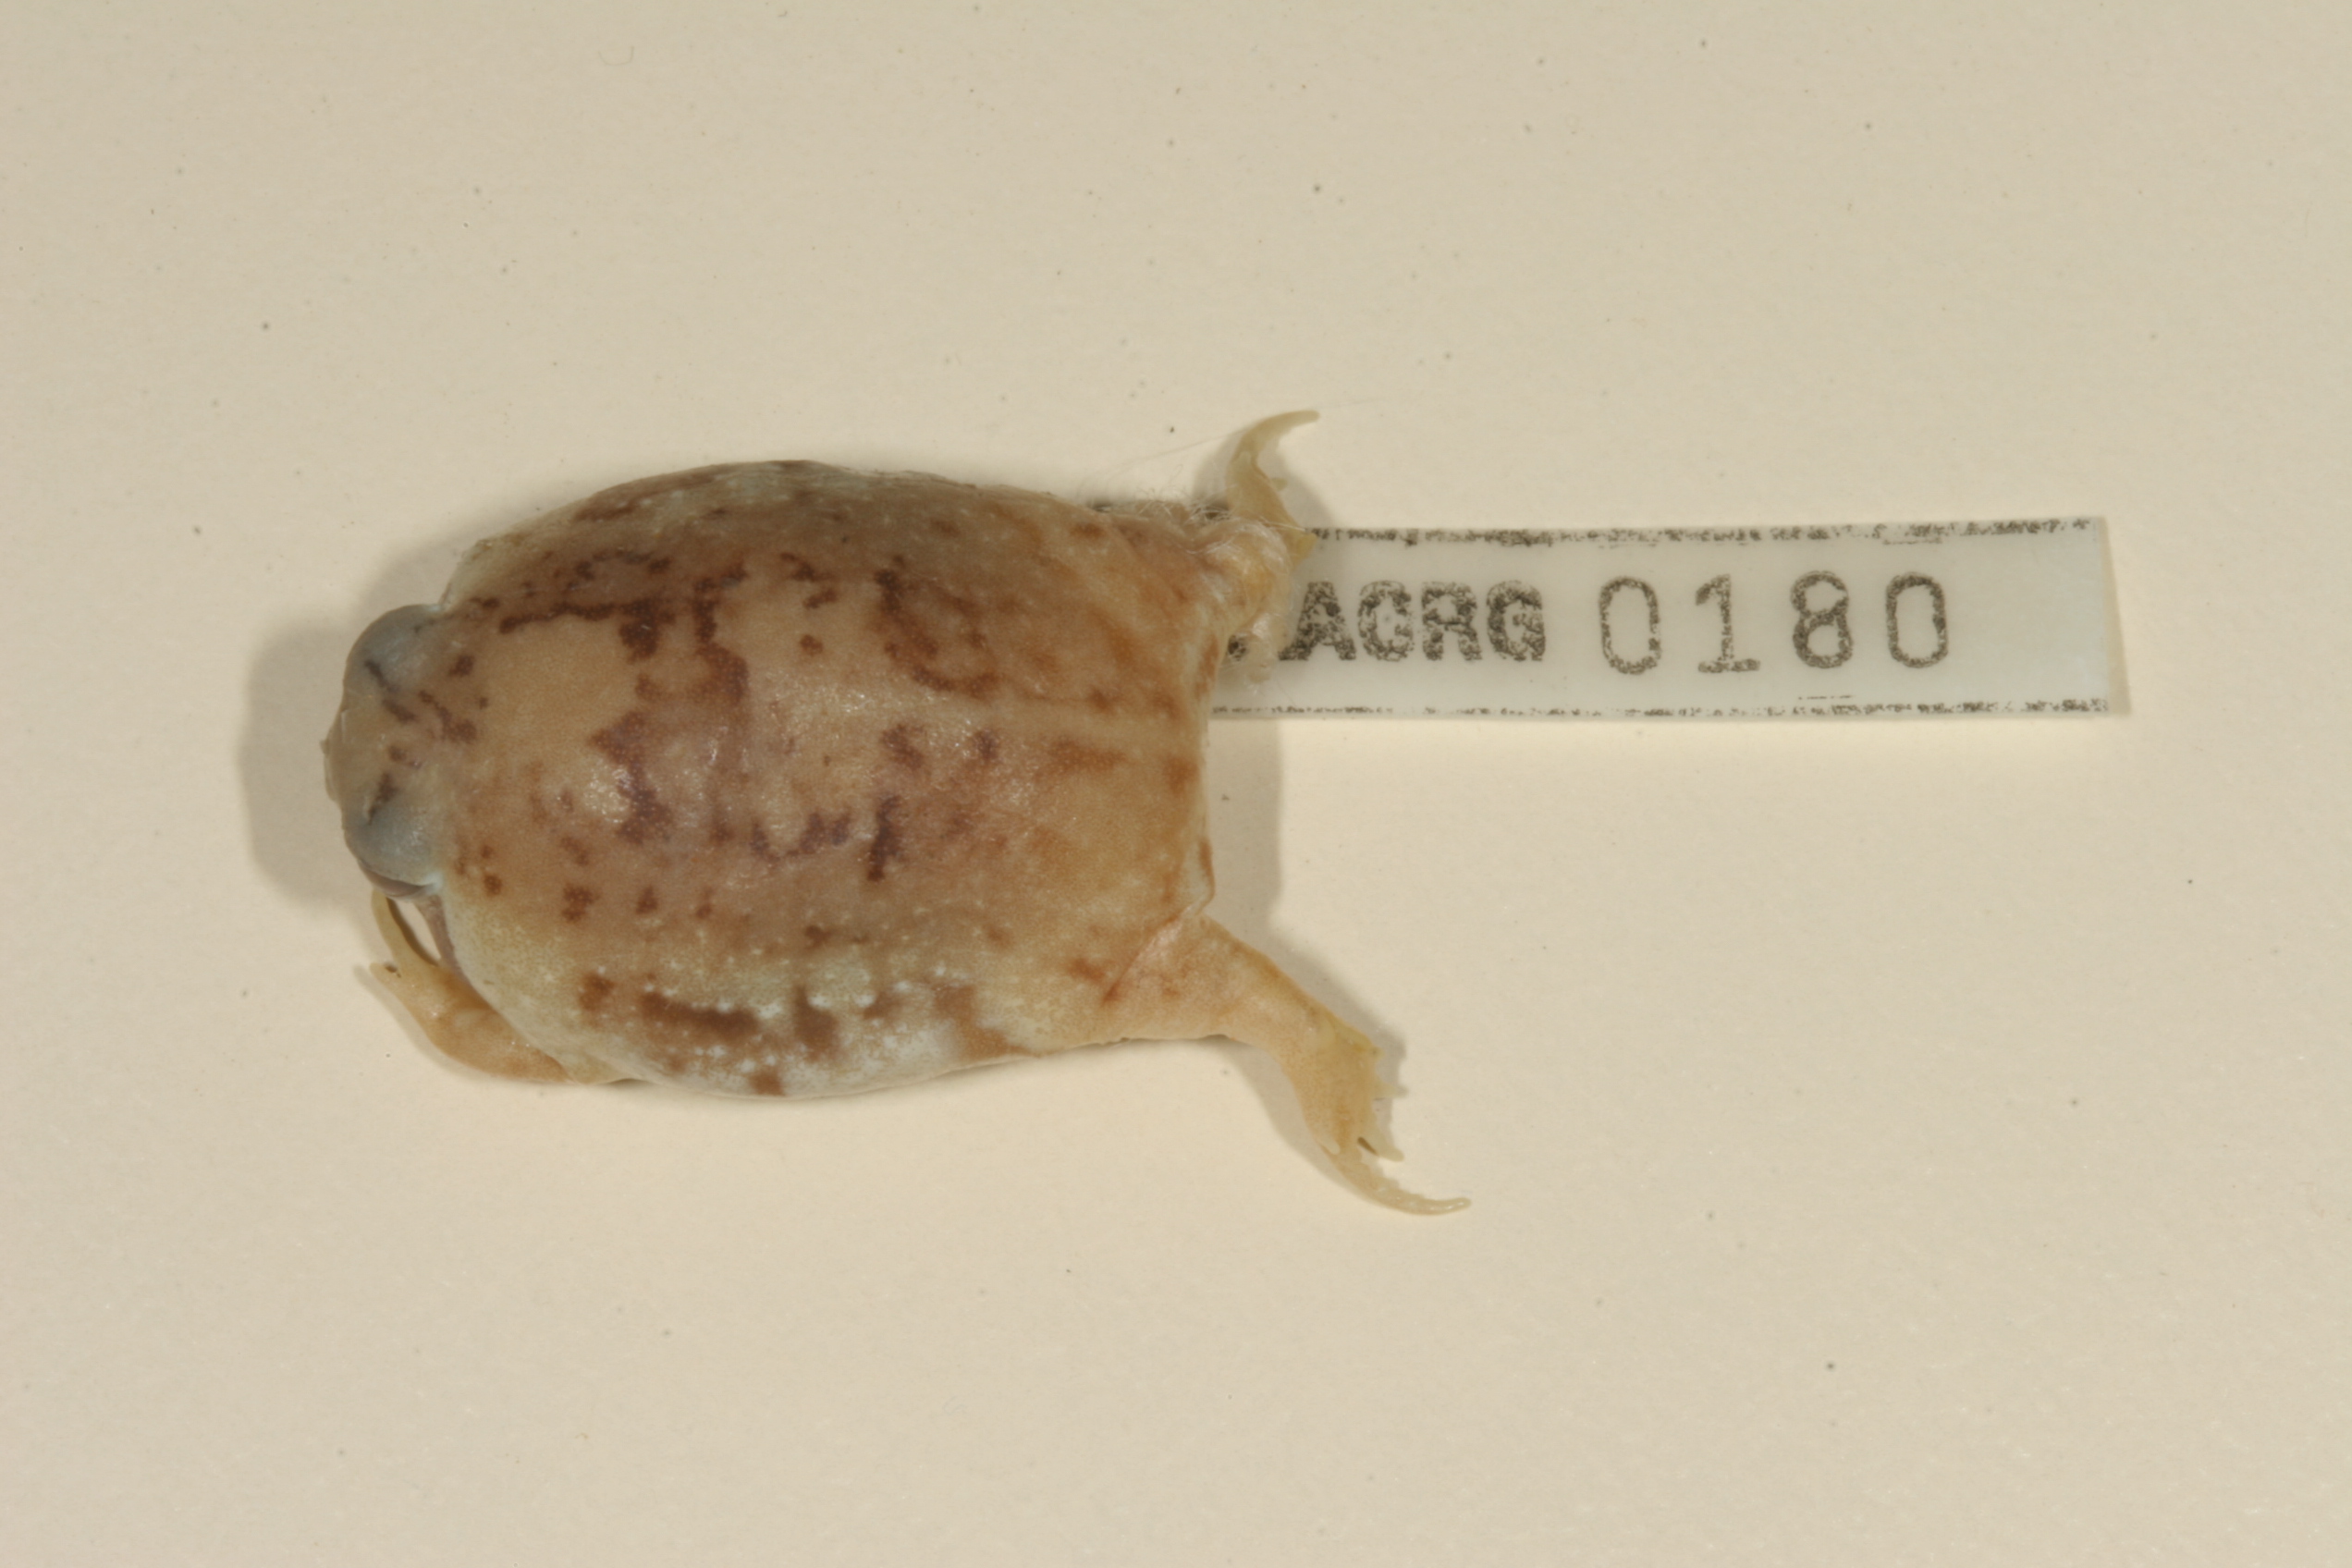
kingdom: Animalia
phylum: Chordata
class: Amphibia
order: Anura
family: Brevicipitidae
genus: Breviceps
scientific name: Breviceps adspersus
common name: Common rain frog
